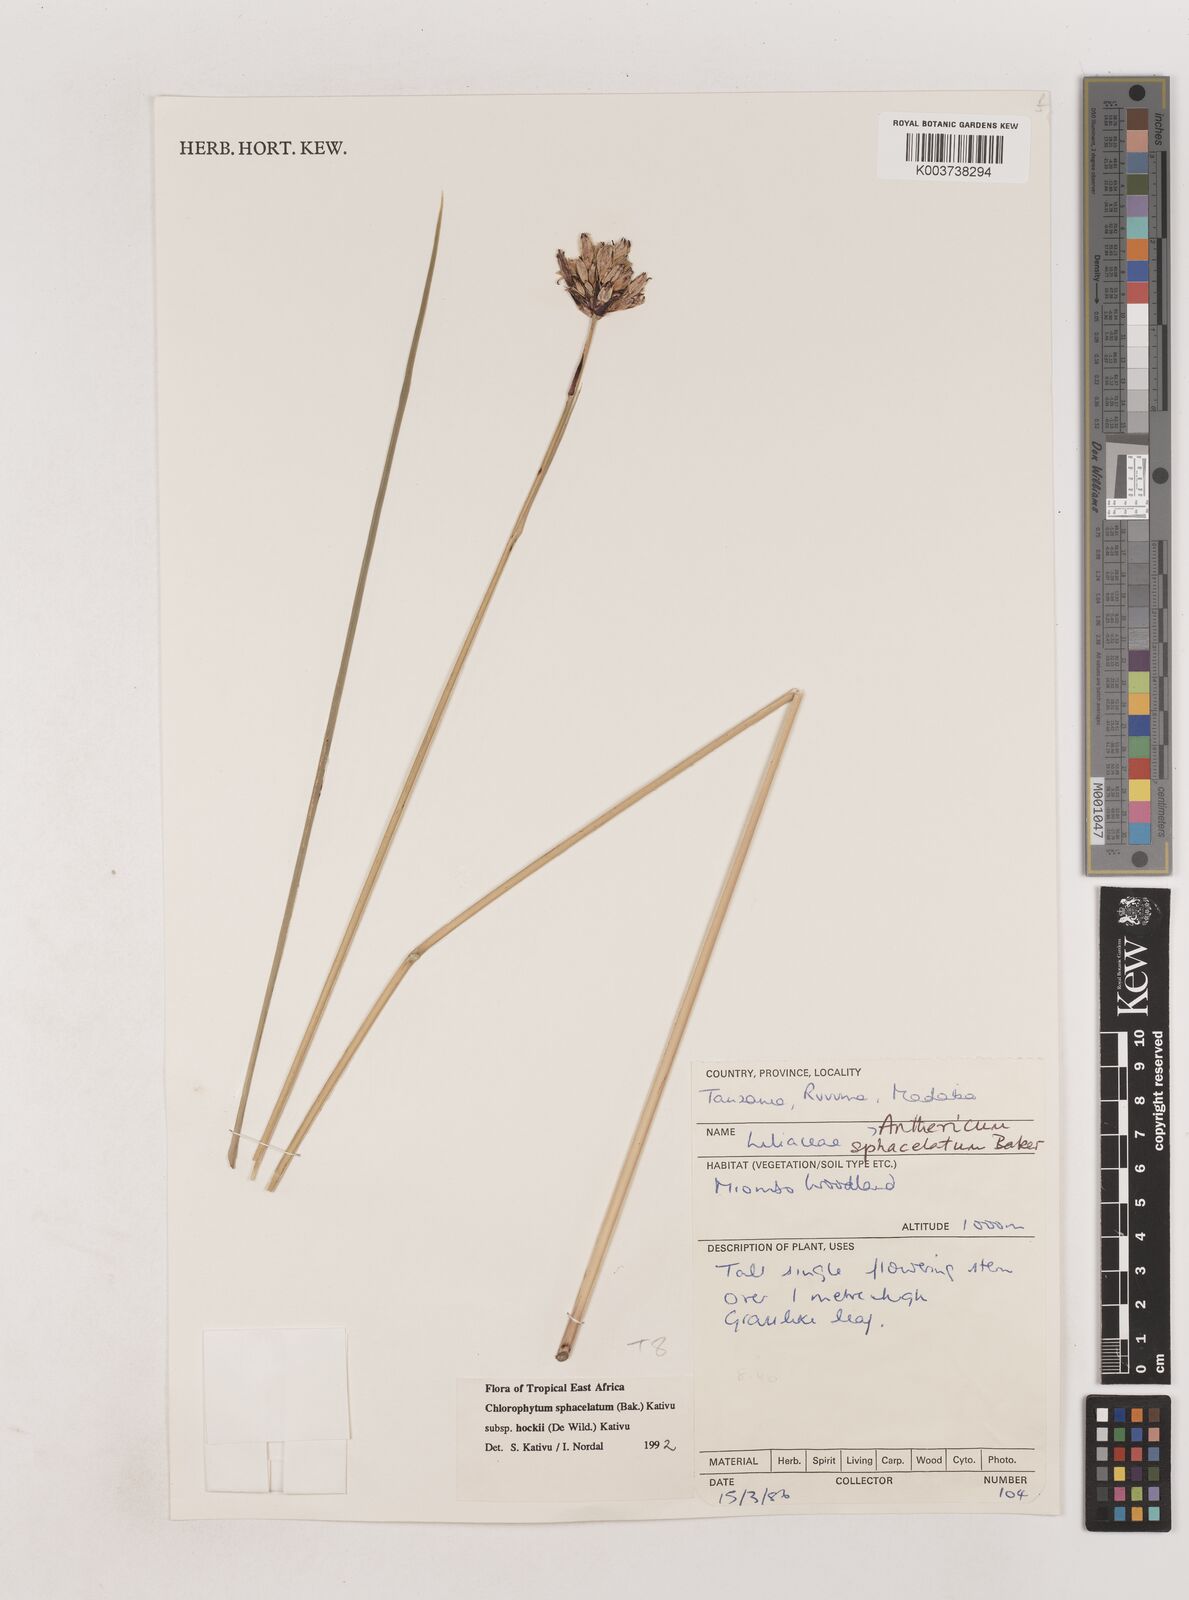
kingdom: Plantae
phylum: Tracheophyta
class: Liliopsida
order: Asparagales
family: Asparagaceae
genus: Chlorophytum
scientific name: Chlorophytum sphacelatum
